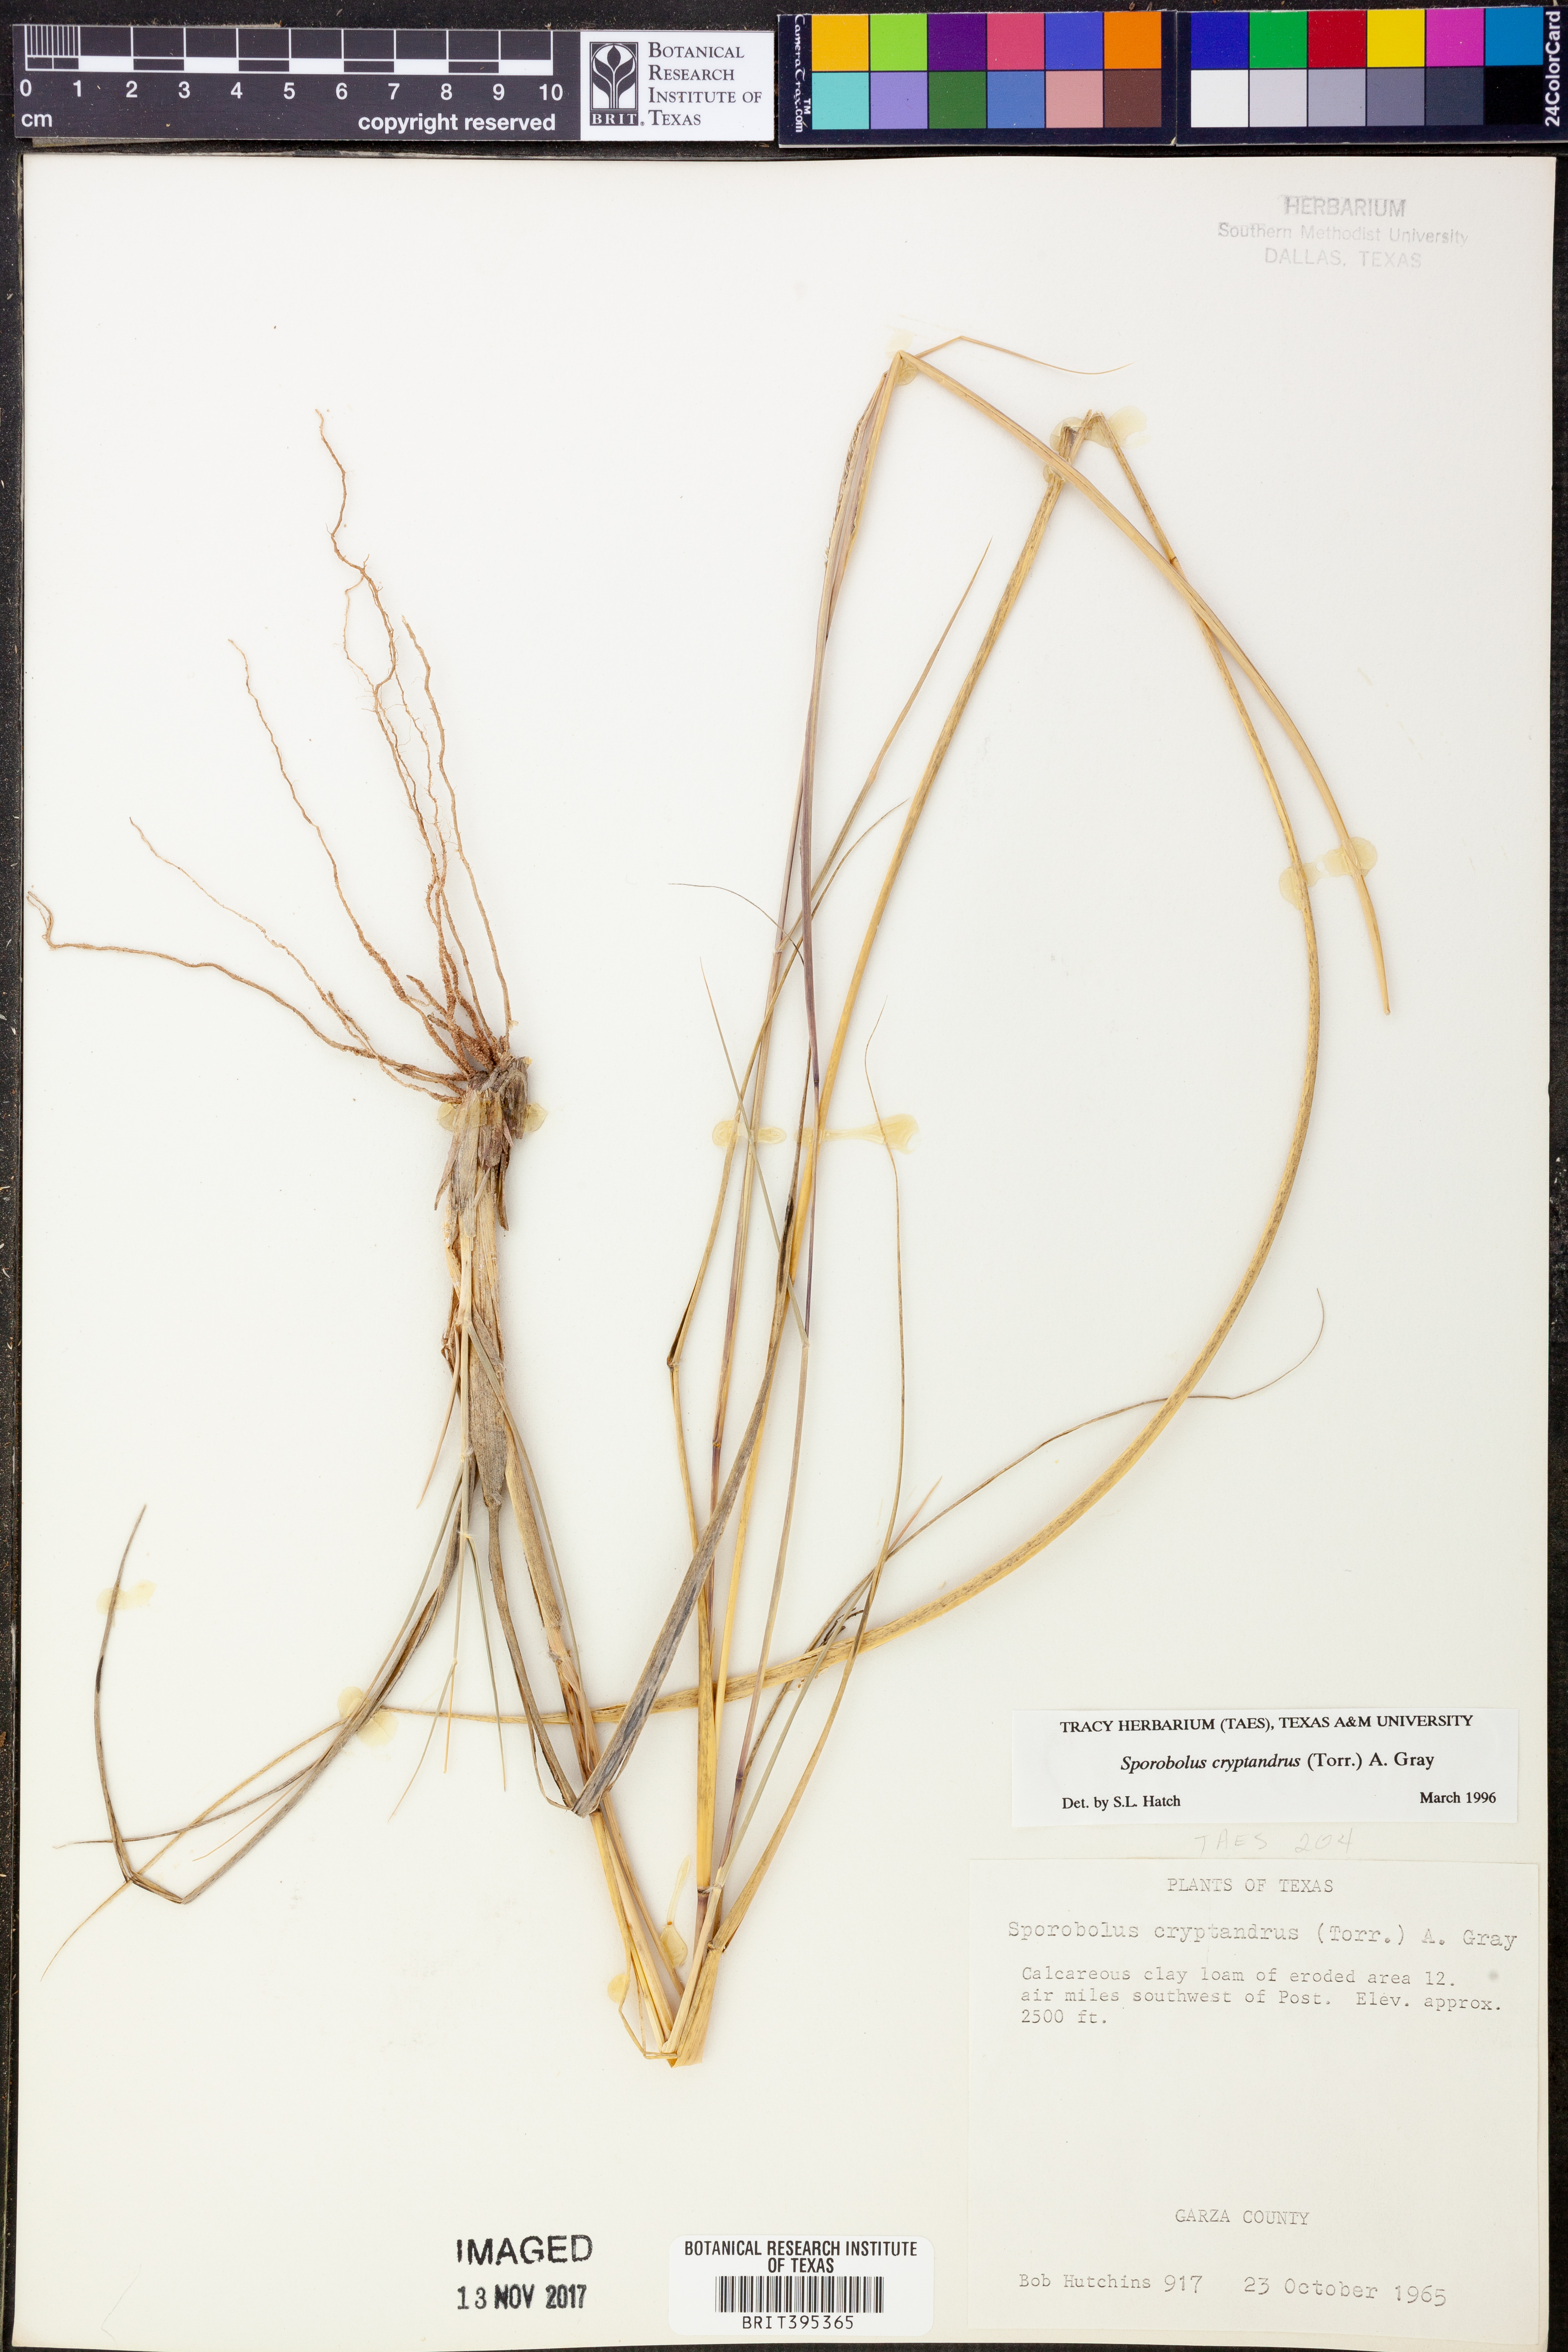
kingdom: Plantae
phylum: Tracheophyta
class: Liliopsida
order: Poales
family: Poaceae
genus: Sporobolus
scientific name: Sporobolus cryptandrus
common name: Sand dropseed
